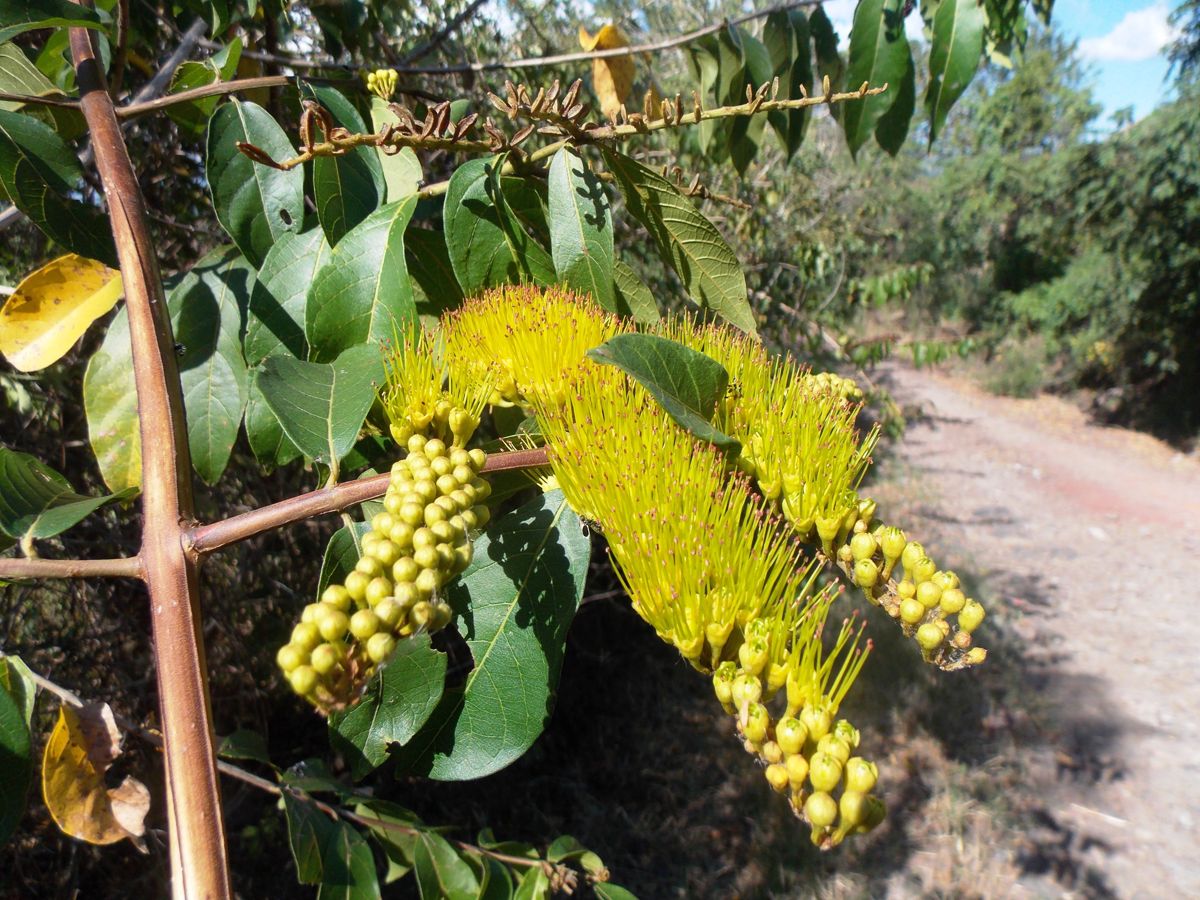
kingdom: Plantae
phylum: Tracheophyta
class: Magnoliopsida
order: Myrtales
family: Combretaceae
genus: Combretum
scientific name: Combretum fruticosum
